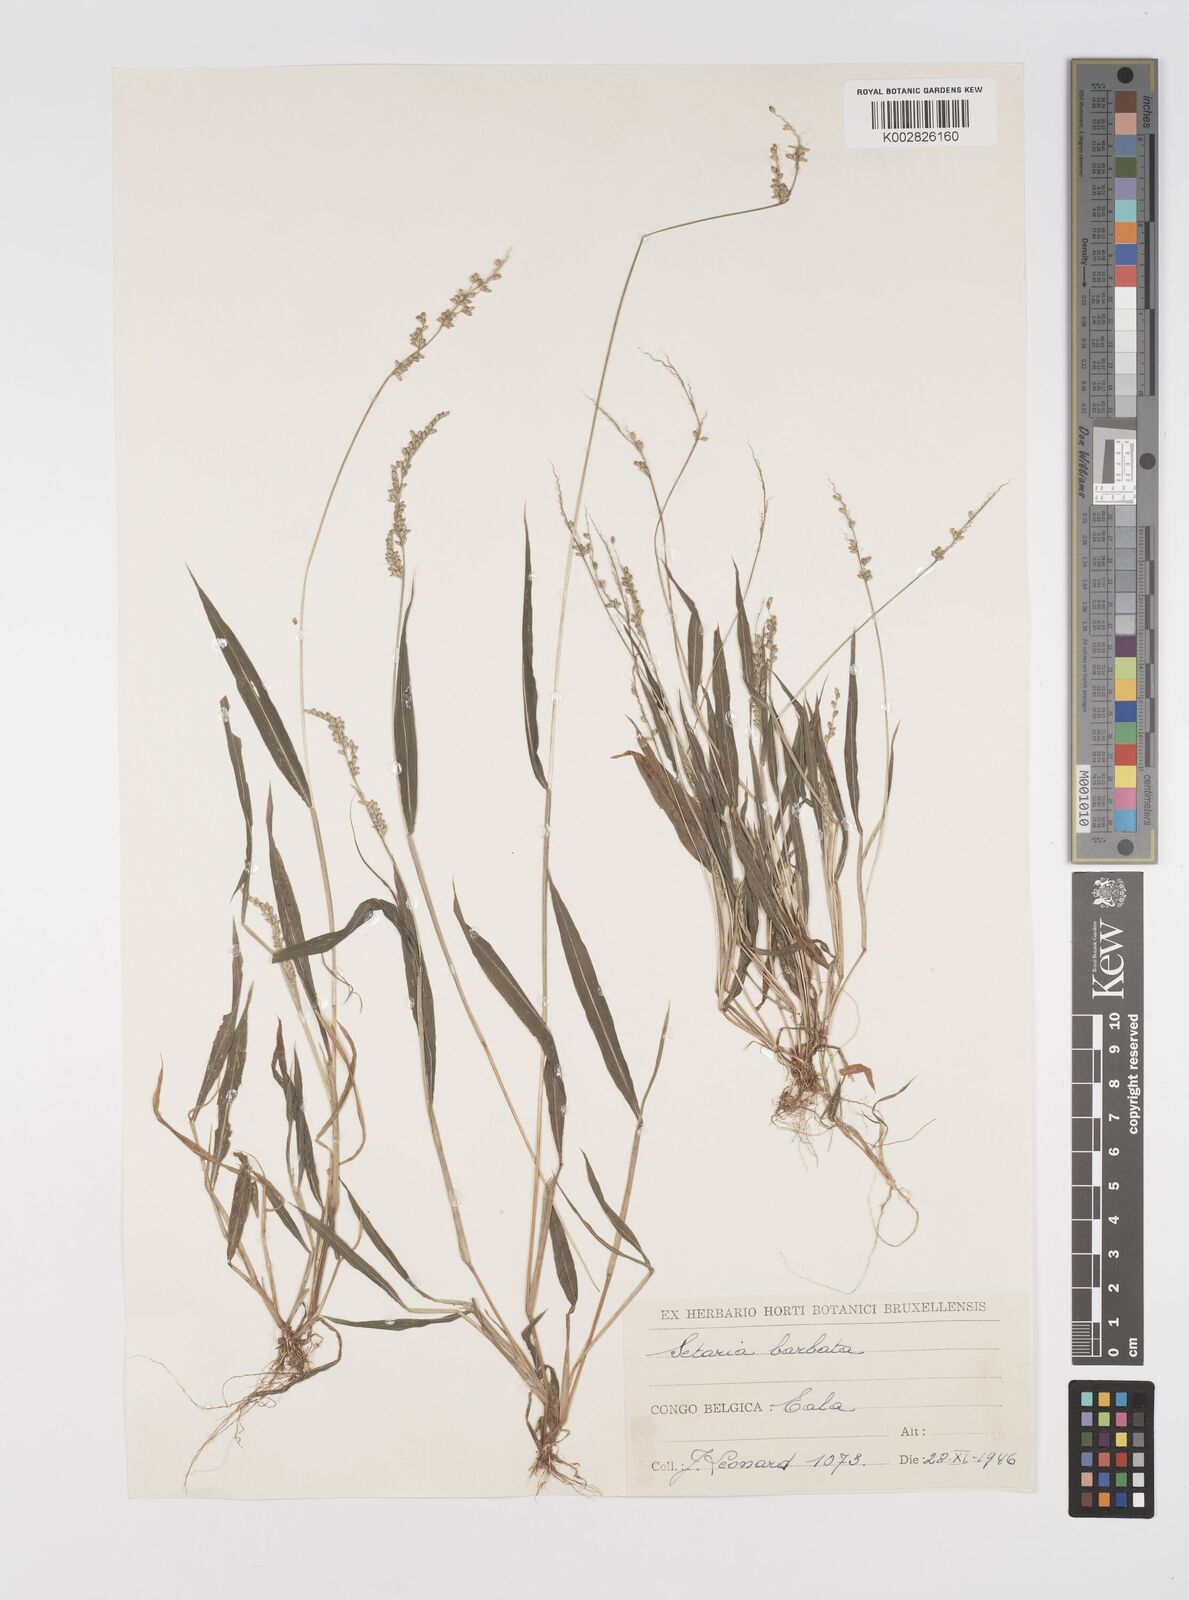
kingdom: Plantae
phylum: Tracheophyta
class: Liliopsida
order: Poales
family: Poaceae
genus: Setaria
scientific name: Setaria barbata
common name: East indian bristlegrass
